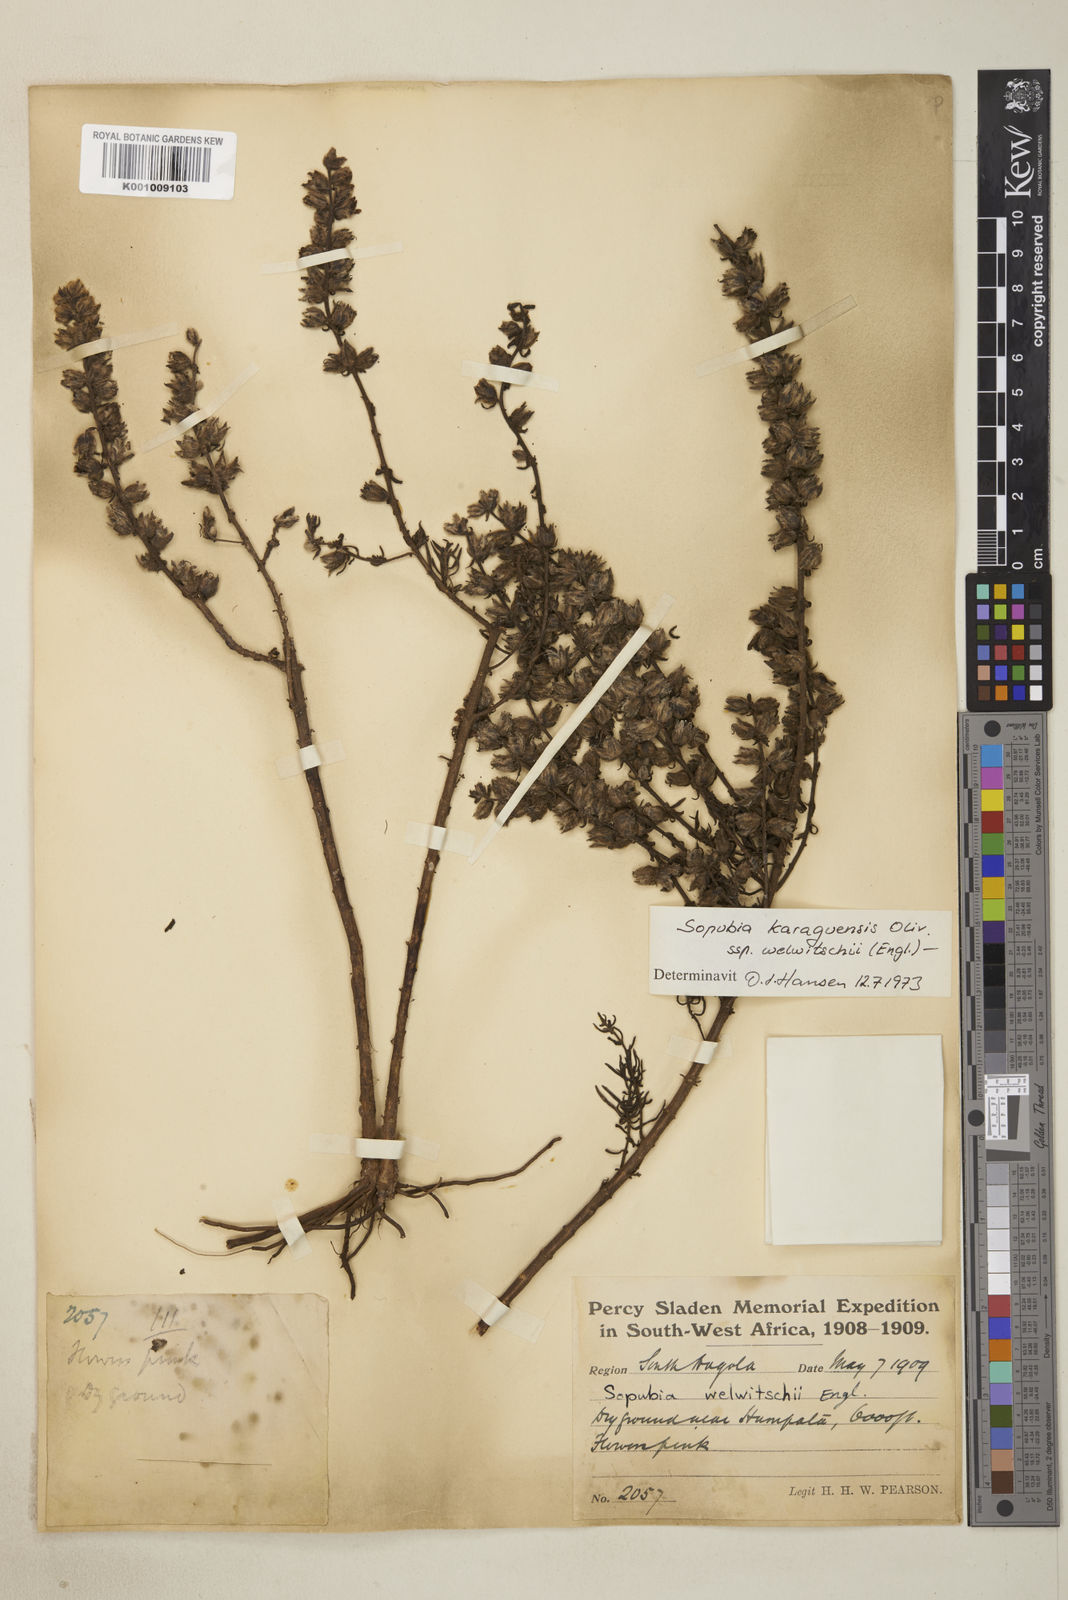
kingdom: Plantae
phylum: Tracheophyta
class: Magnoliopsida
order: Lamiales
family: Orobanchaceae
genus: Sopubia
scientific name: Sopubia karaguensis
